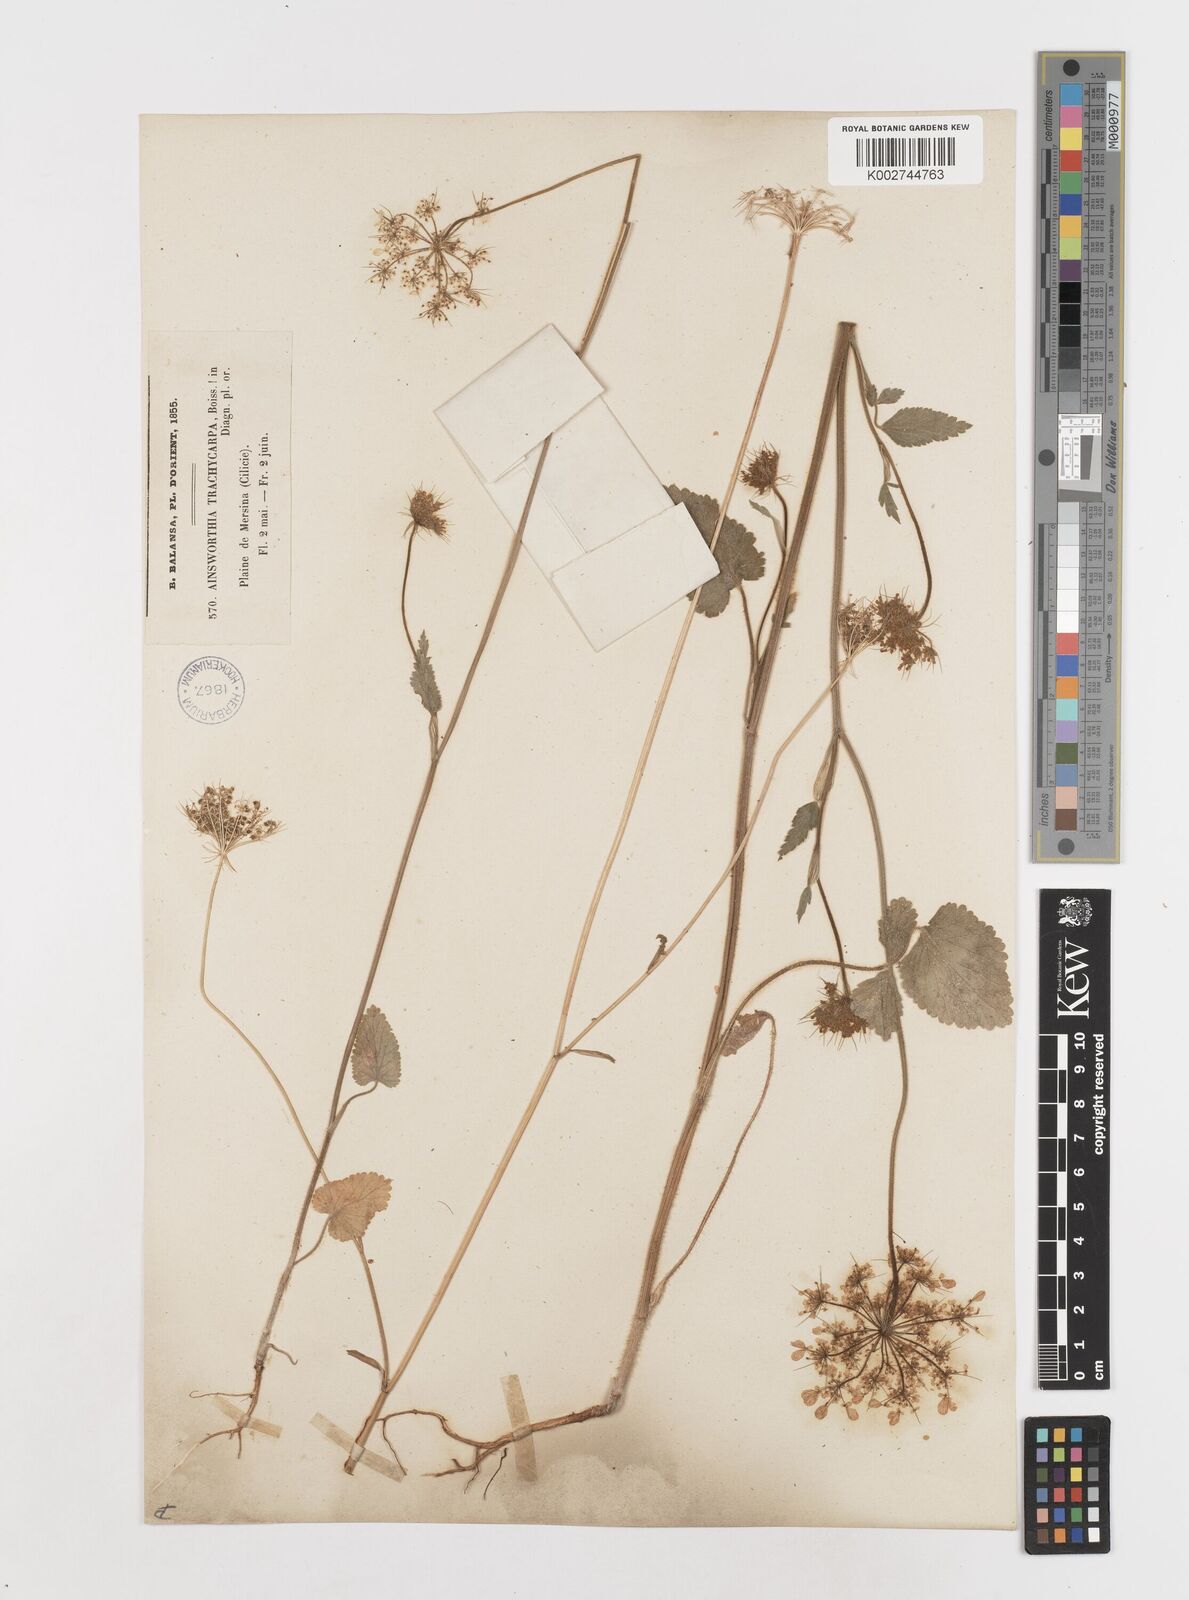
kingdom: Plantae
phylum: Tracheophyta
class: Magnoliopsida
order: Apiales
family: Apiaceae
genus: Ainsworthia
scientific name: Ainsworthia cordata
